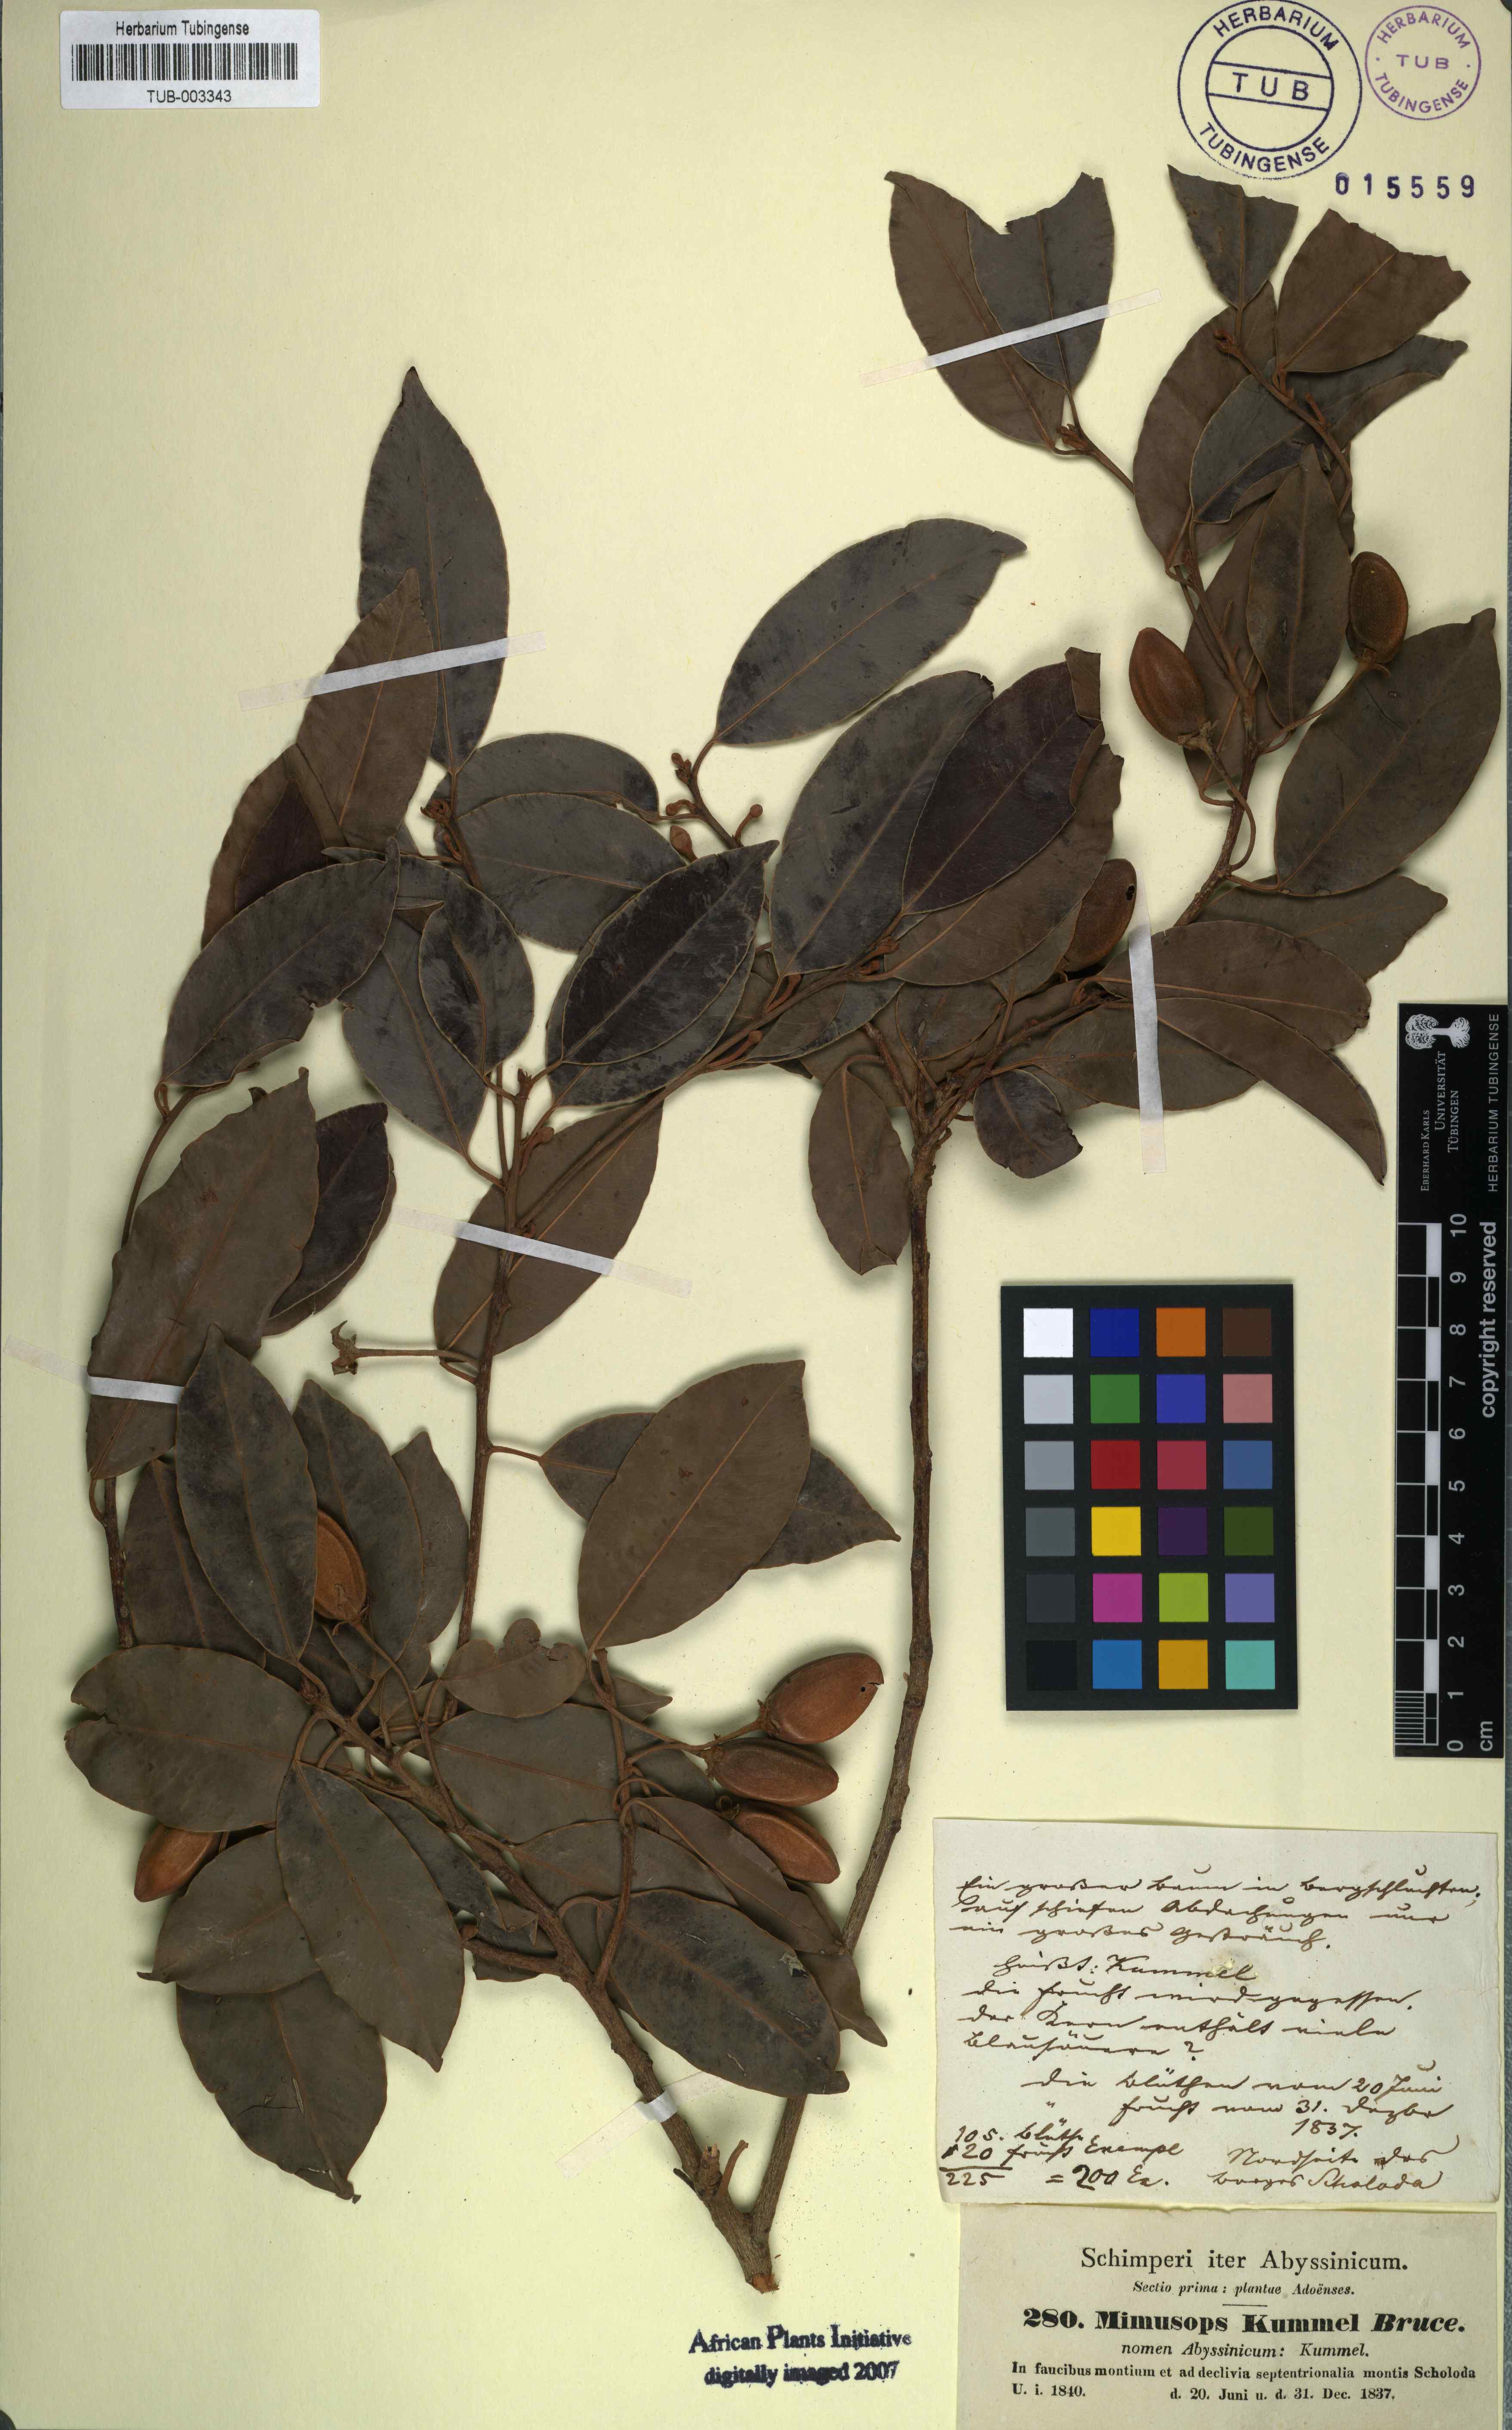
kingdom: Plantae
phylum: Tracheophyta
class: Magnoliopsida
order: Ericales
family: Sapotaceae
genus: Mimusops
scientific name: Mimusops kummel
